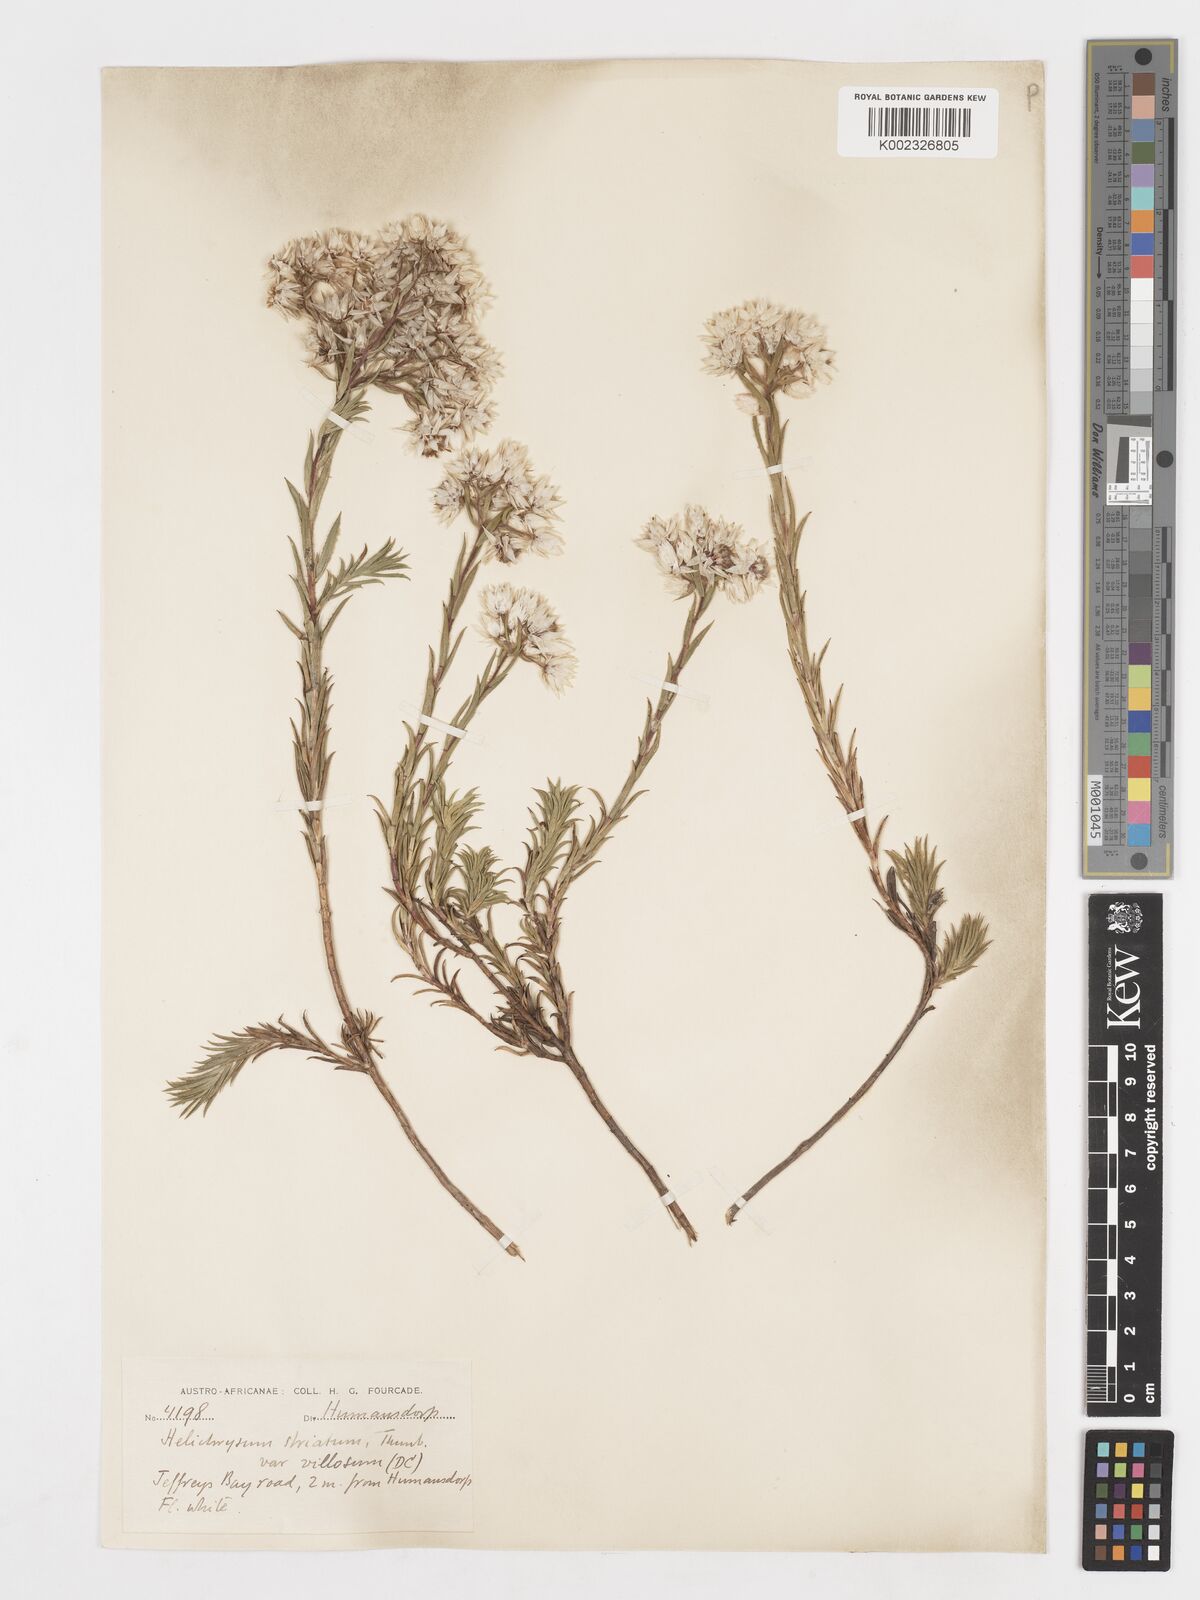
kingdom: Plantae
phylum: Tracheophyta
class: Magnoliopsida
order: Asterales
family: Asteraceae
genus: Achyranthemum
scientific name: Achyranthemum striatum
